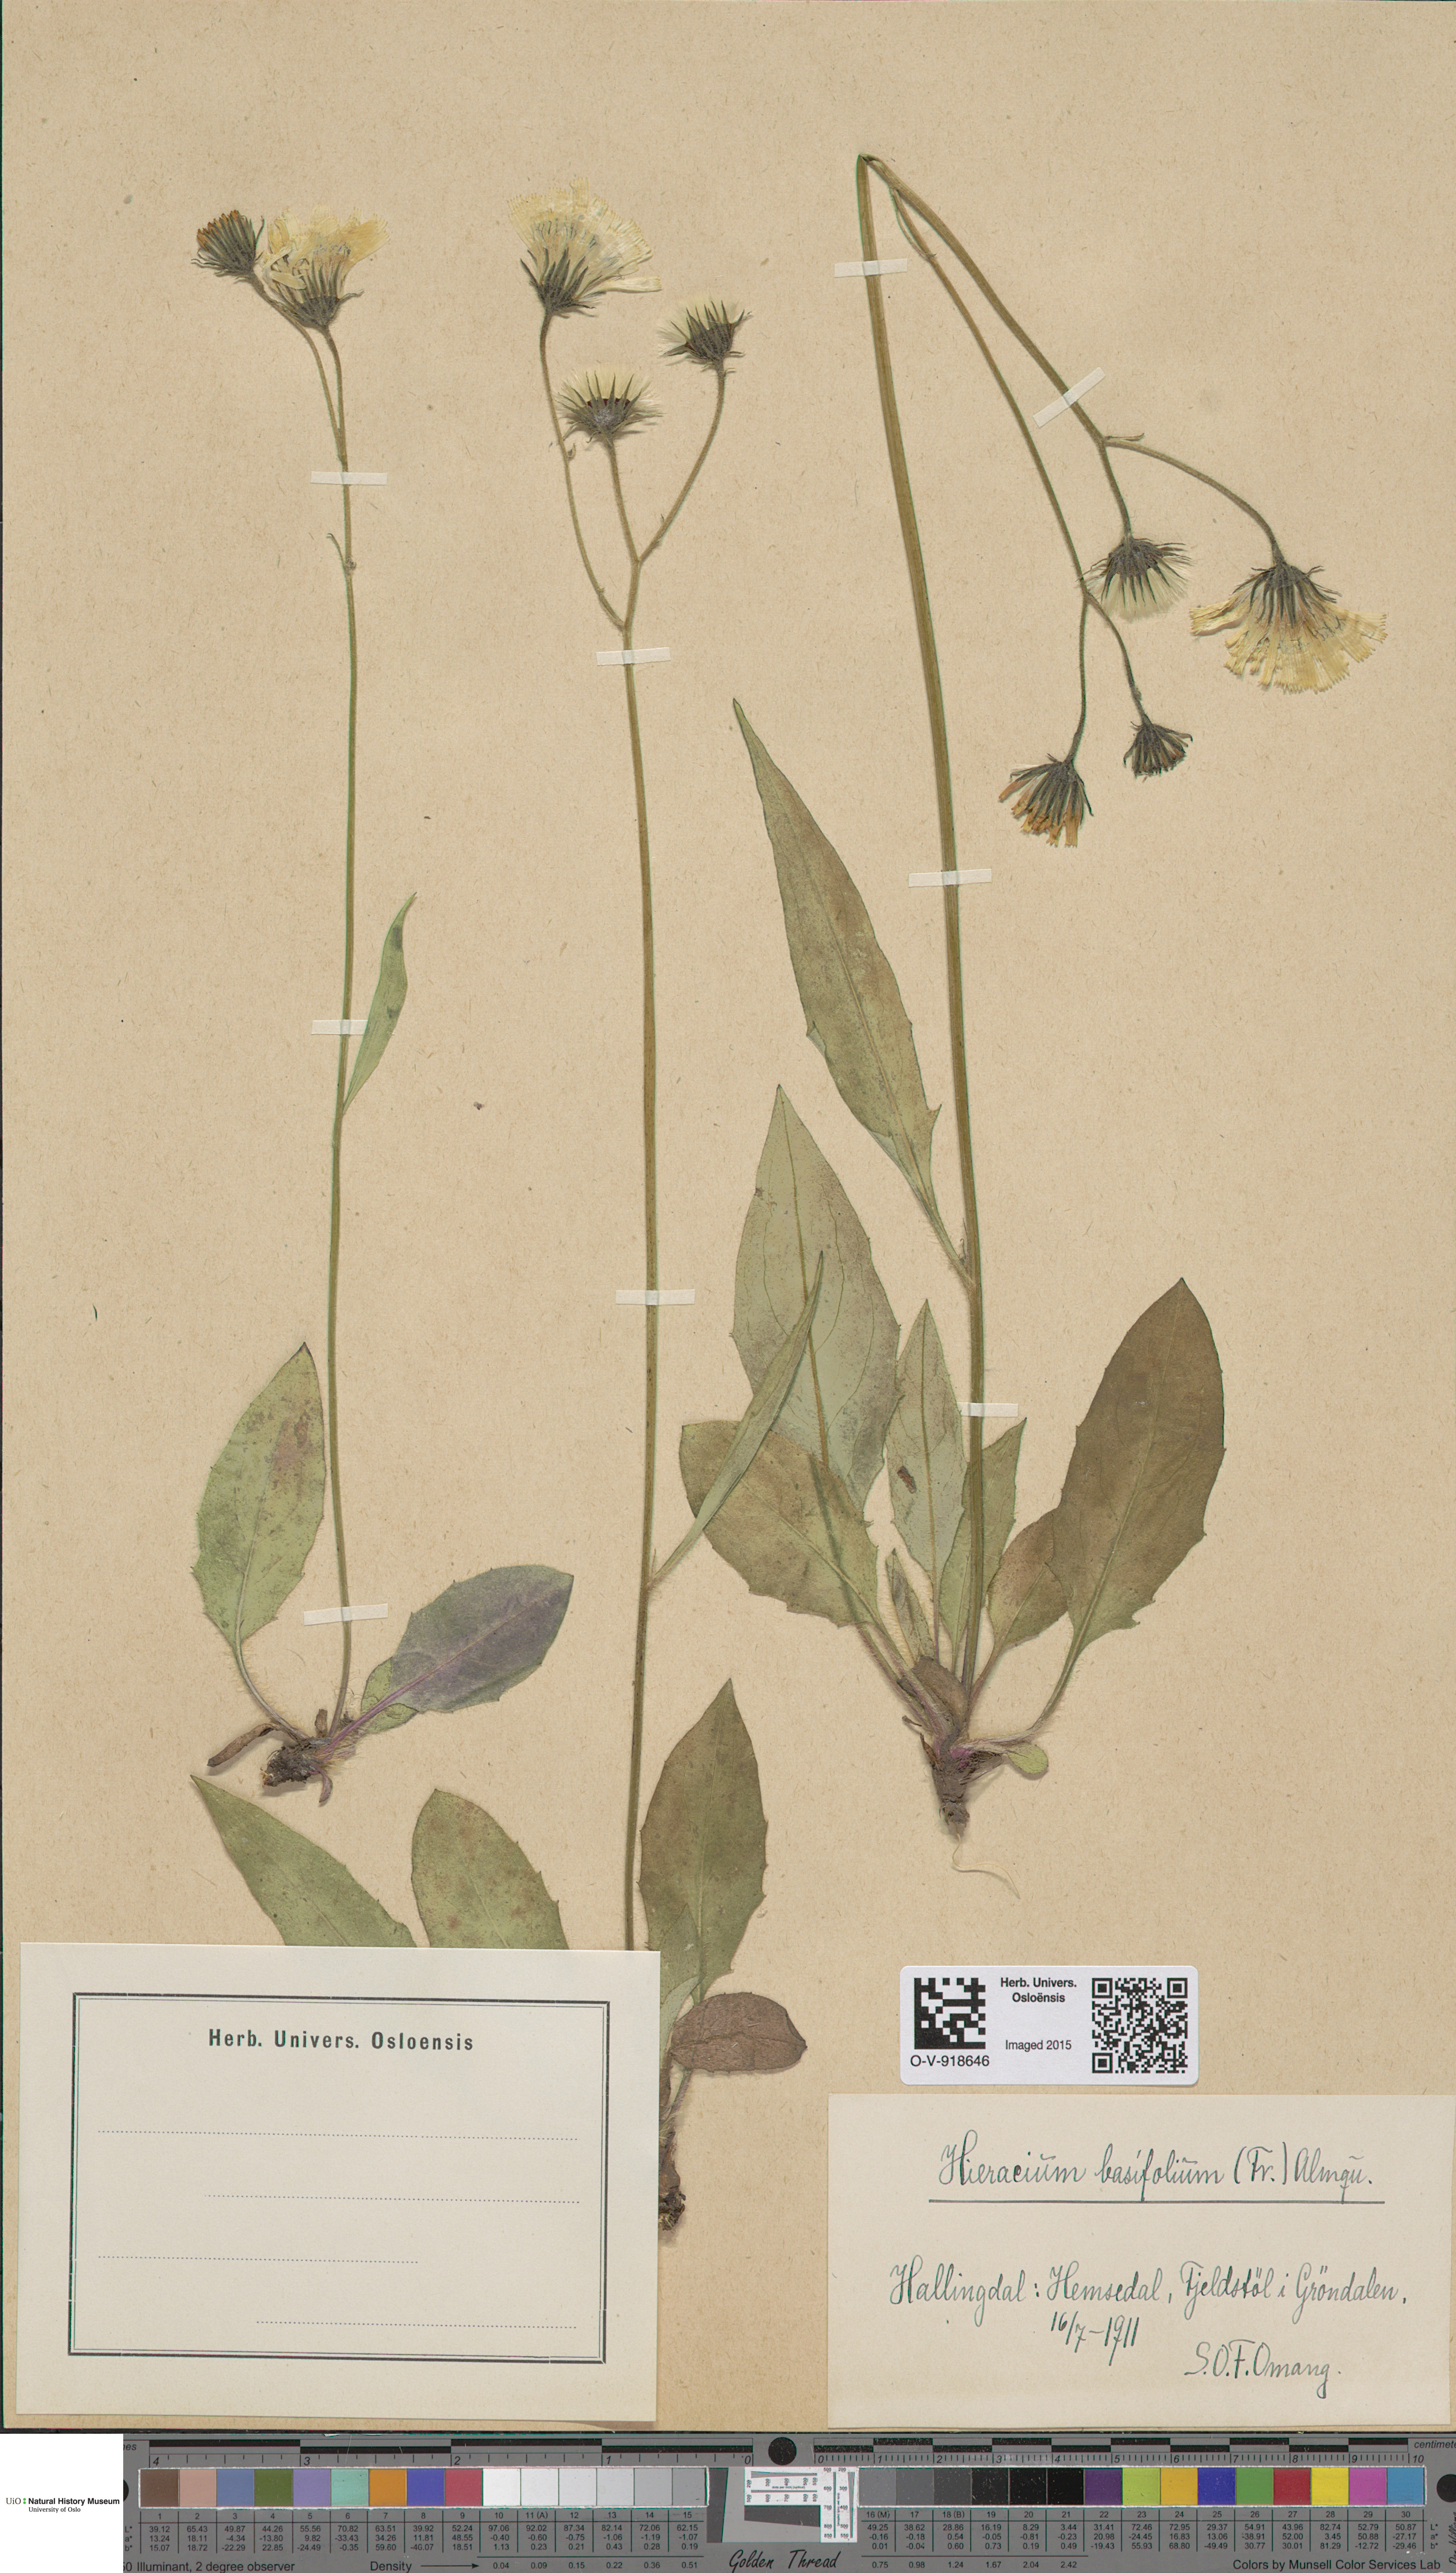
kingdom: Plantae
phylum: Tracheophyta
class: Magnoliopsida
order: Asterales
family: Asteraceae
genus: Hieracium
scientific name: Hieracium basifolium
